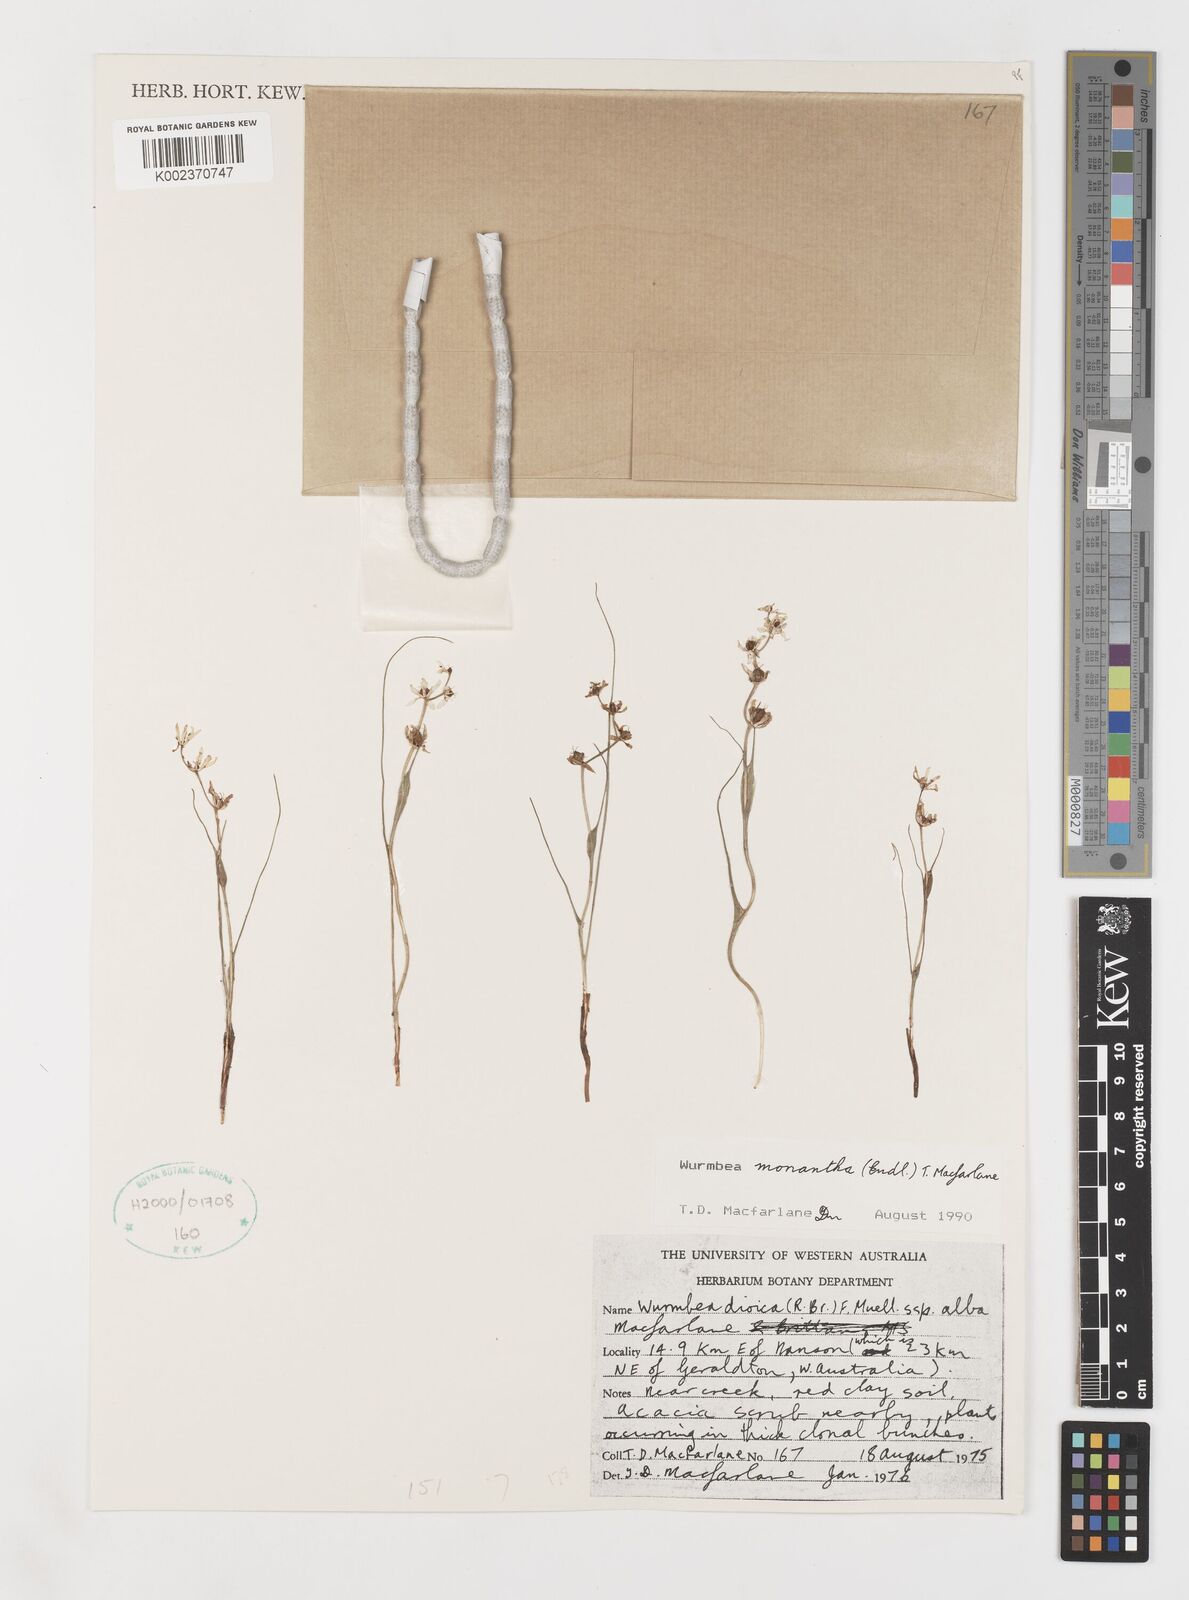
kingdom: Plantae
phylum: Tracheophyta
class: Liliopsida
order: Liliales
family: Colchicaceae
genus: Wurmbea
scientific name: Wurmbea monantha
